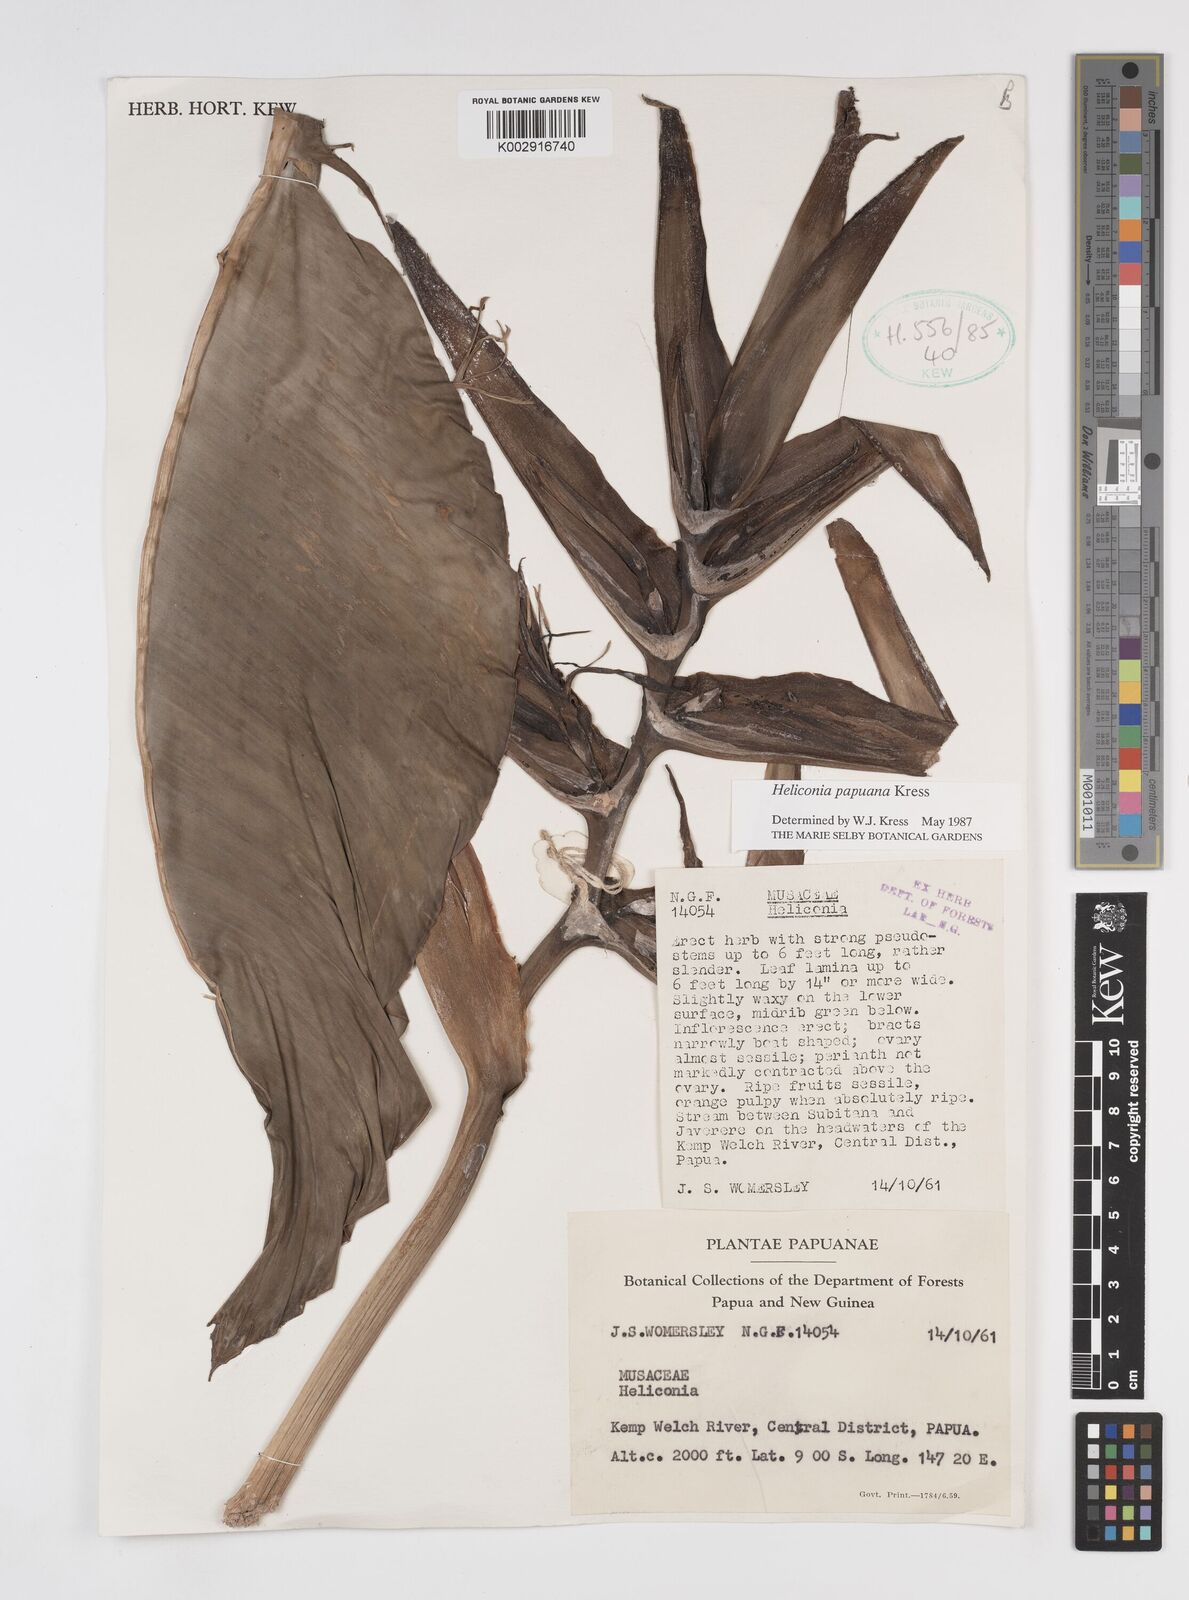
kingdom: Plantae
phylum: Tracheophyta
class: Liliopsida
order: Zingiberales
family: Heliconiaceae
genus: Heliconia
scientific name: Heliconia papuana
